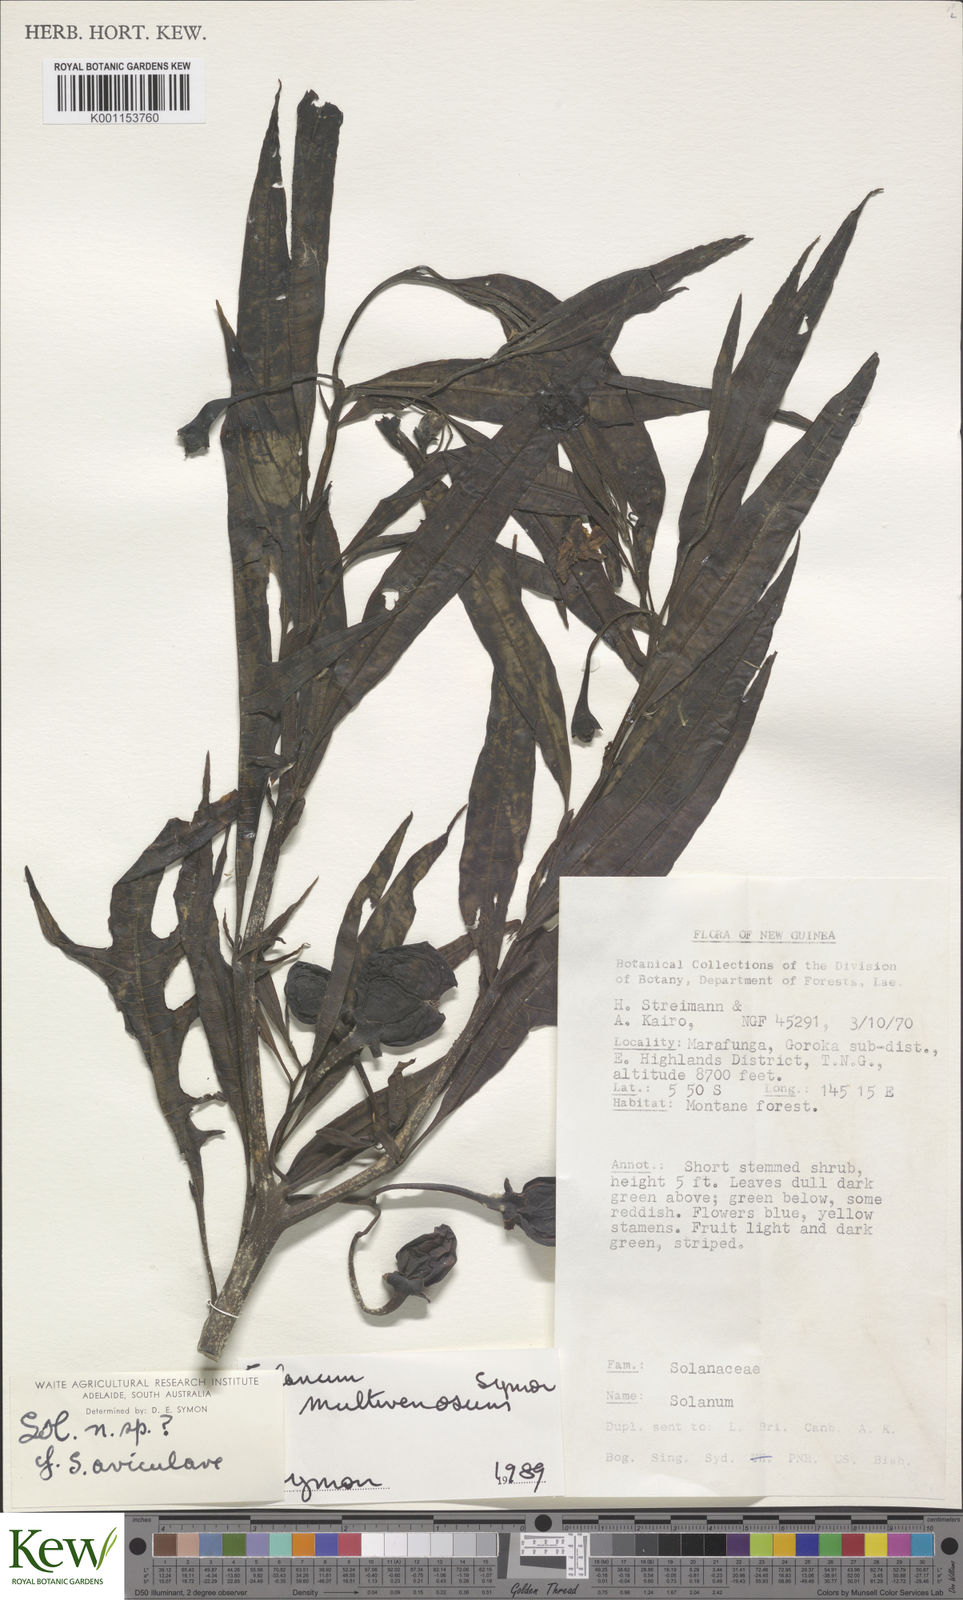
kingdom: Plantae
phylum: Tracheophyta
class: Magnoliopsida
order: Solanales
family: Solanaceae
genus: Solanum
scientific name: Solanum multivenosum
